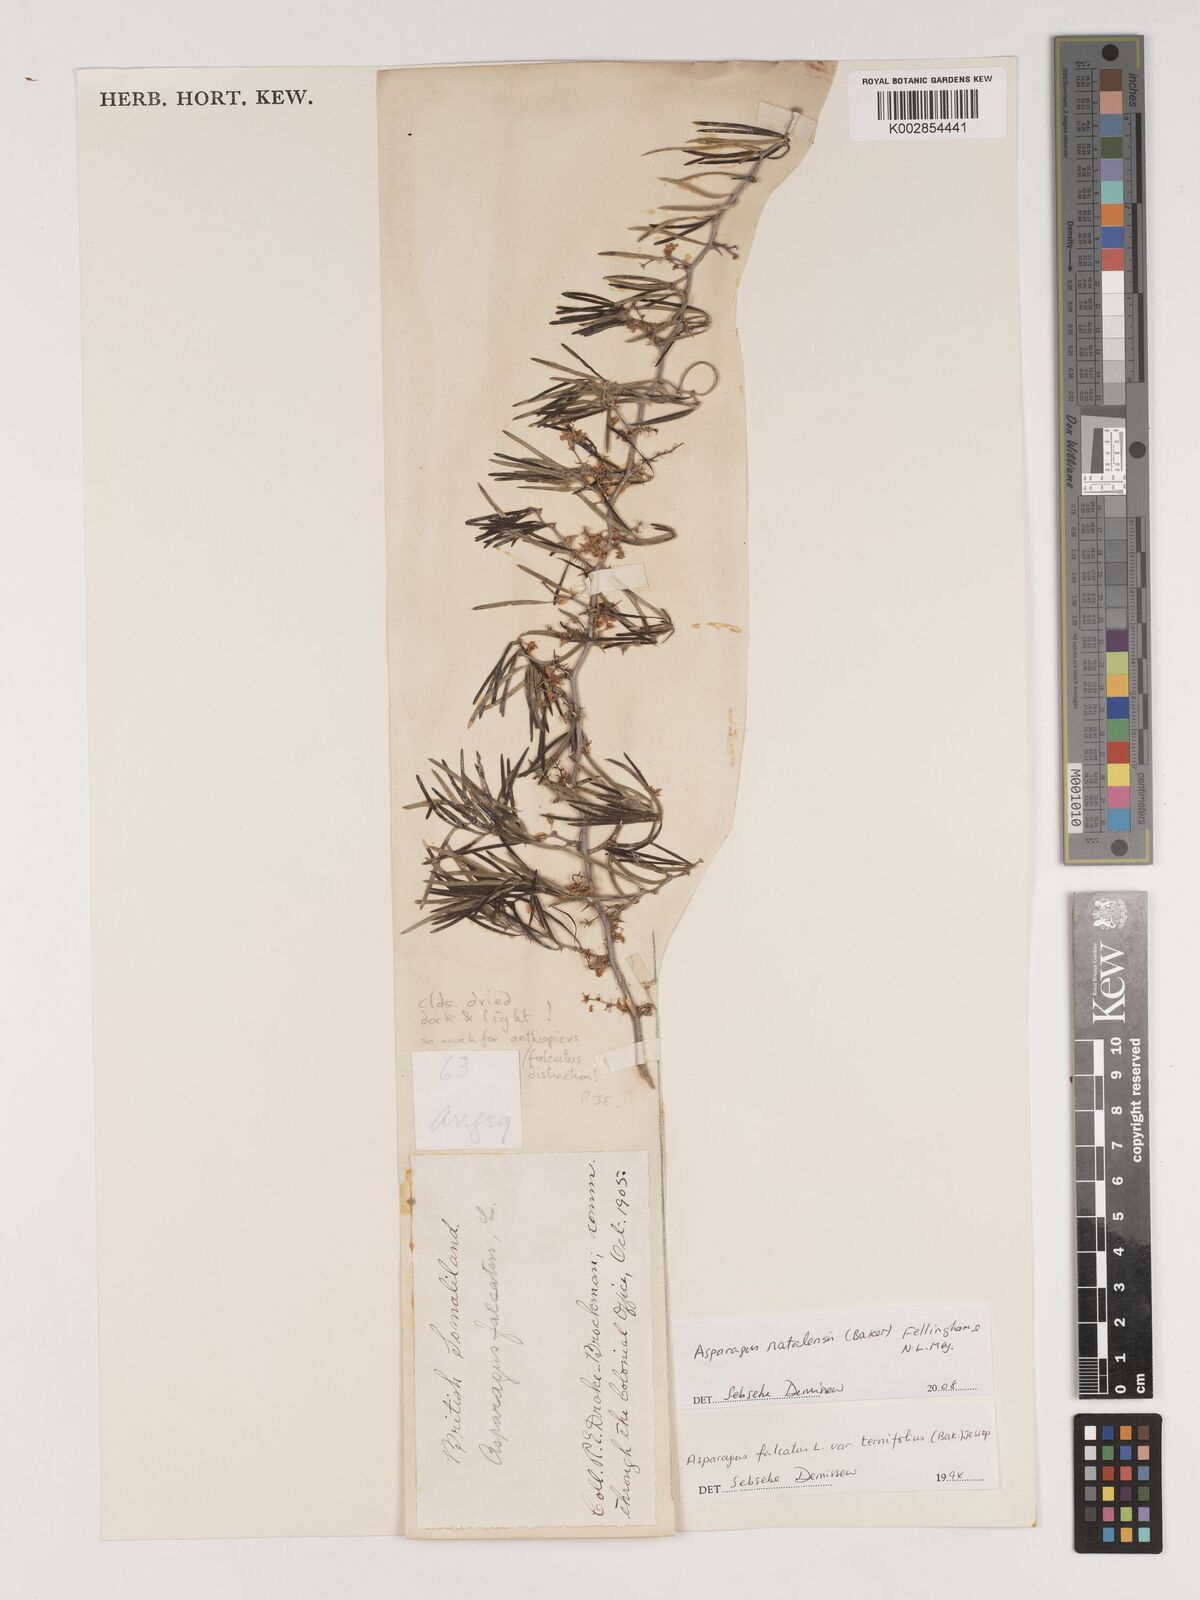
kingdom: Plantae
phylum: Tracheophyta
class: Liliopsida
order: Asparagales
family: Asparagaceae
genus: Asparagus
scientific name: Asparagus natalensis
